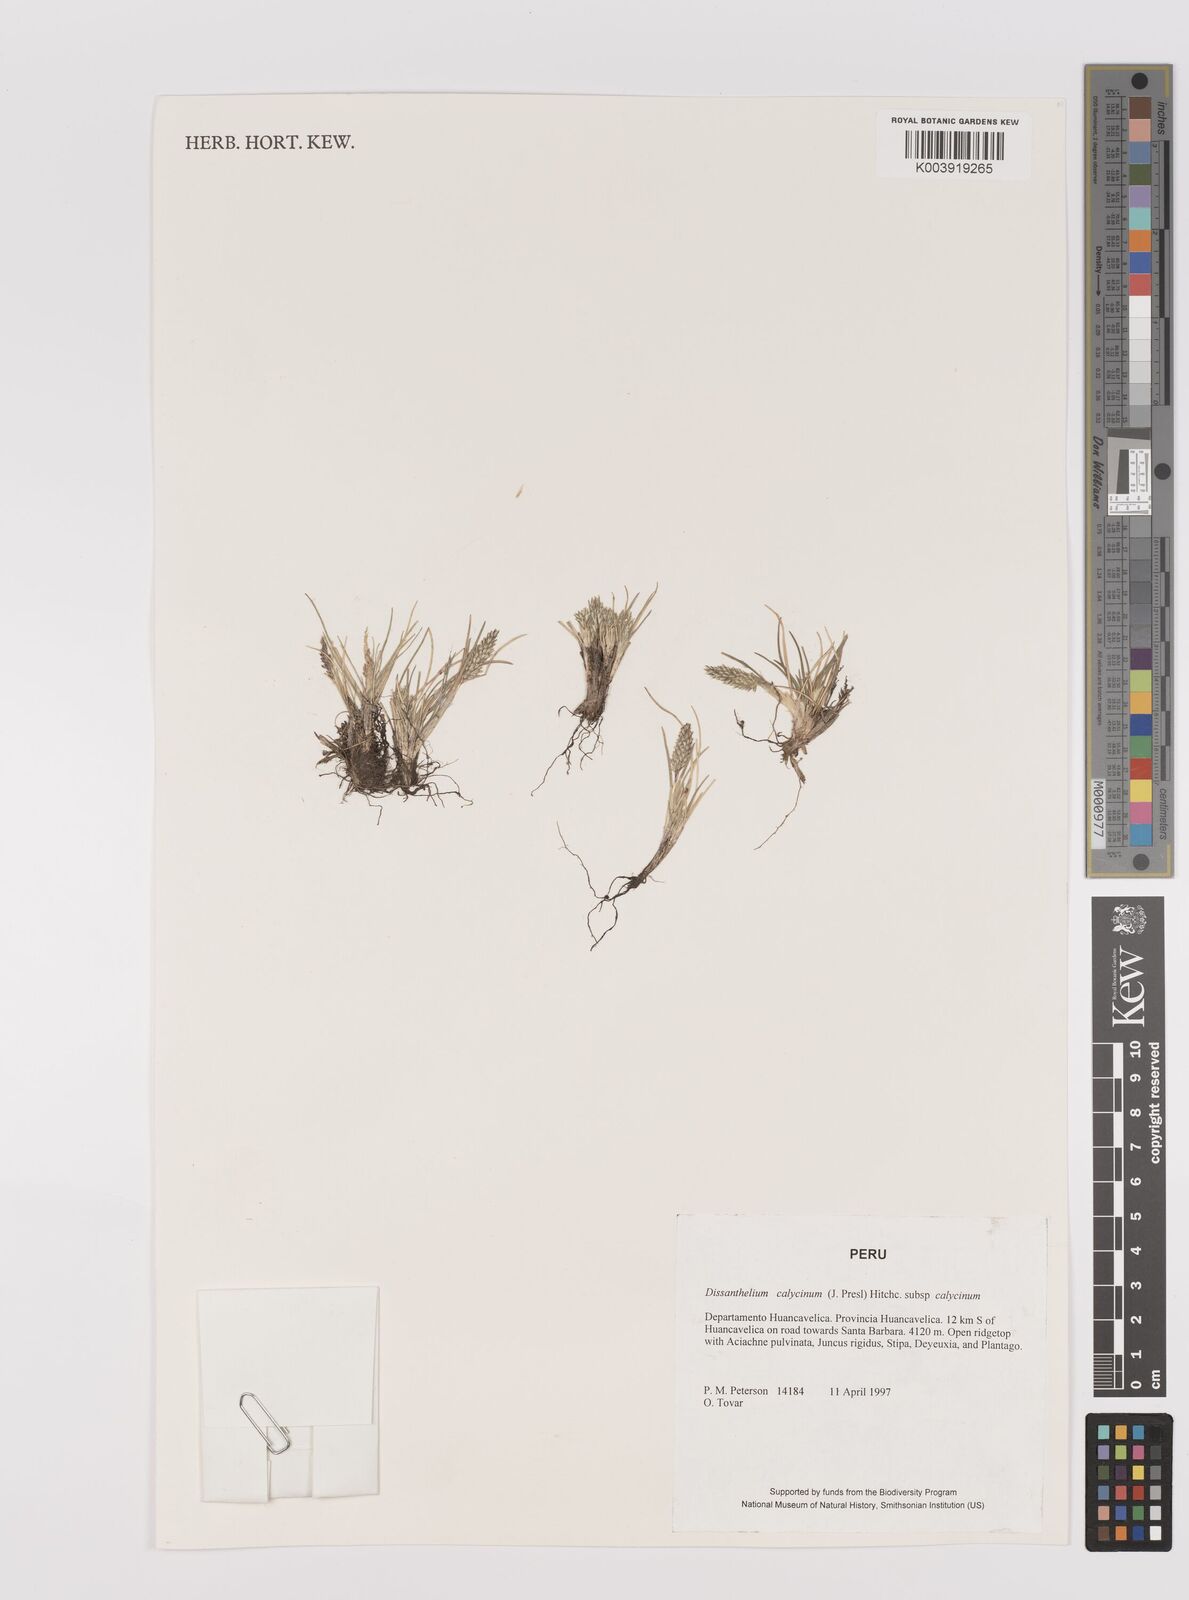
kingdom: Plantae
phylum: Tracheophyta
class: Liliopsida
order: Poales
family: Poaceae
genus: Poa
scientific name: Poa calycina
